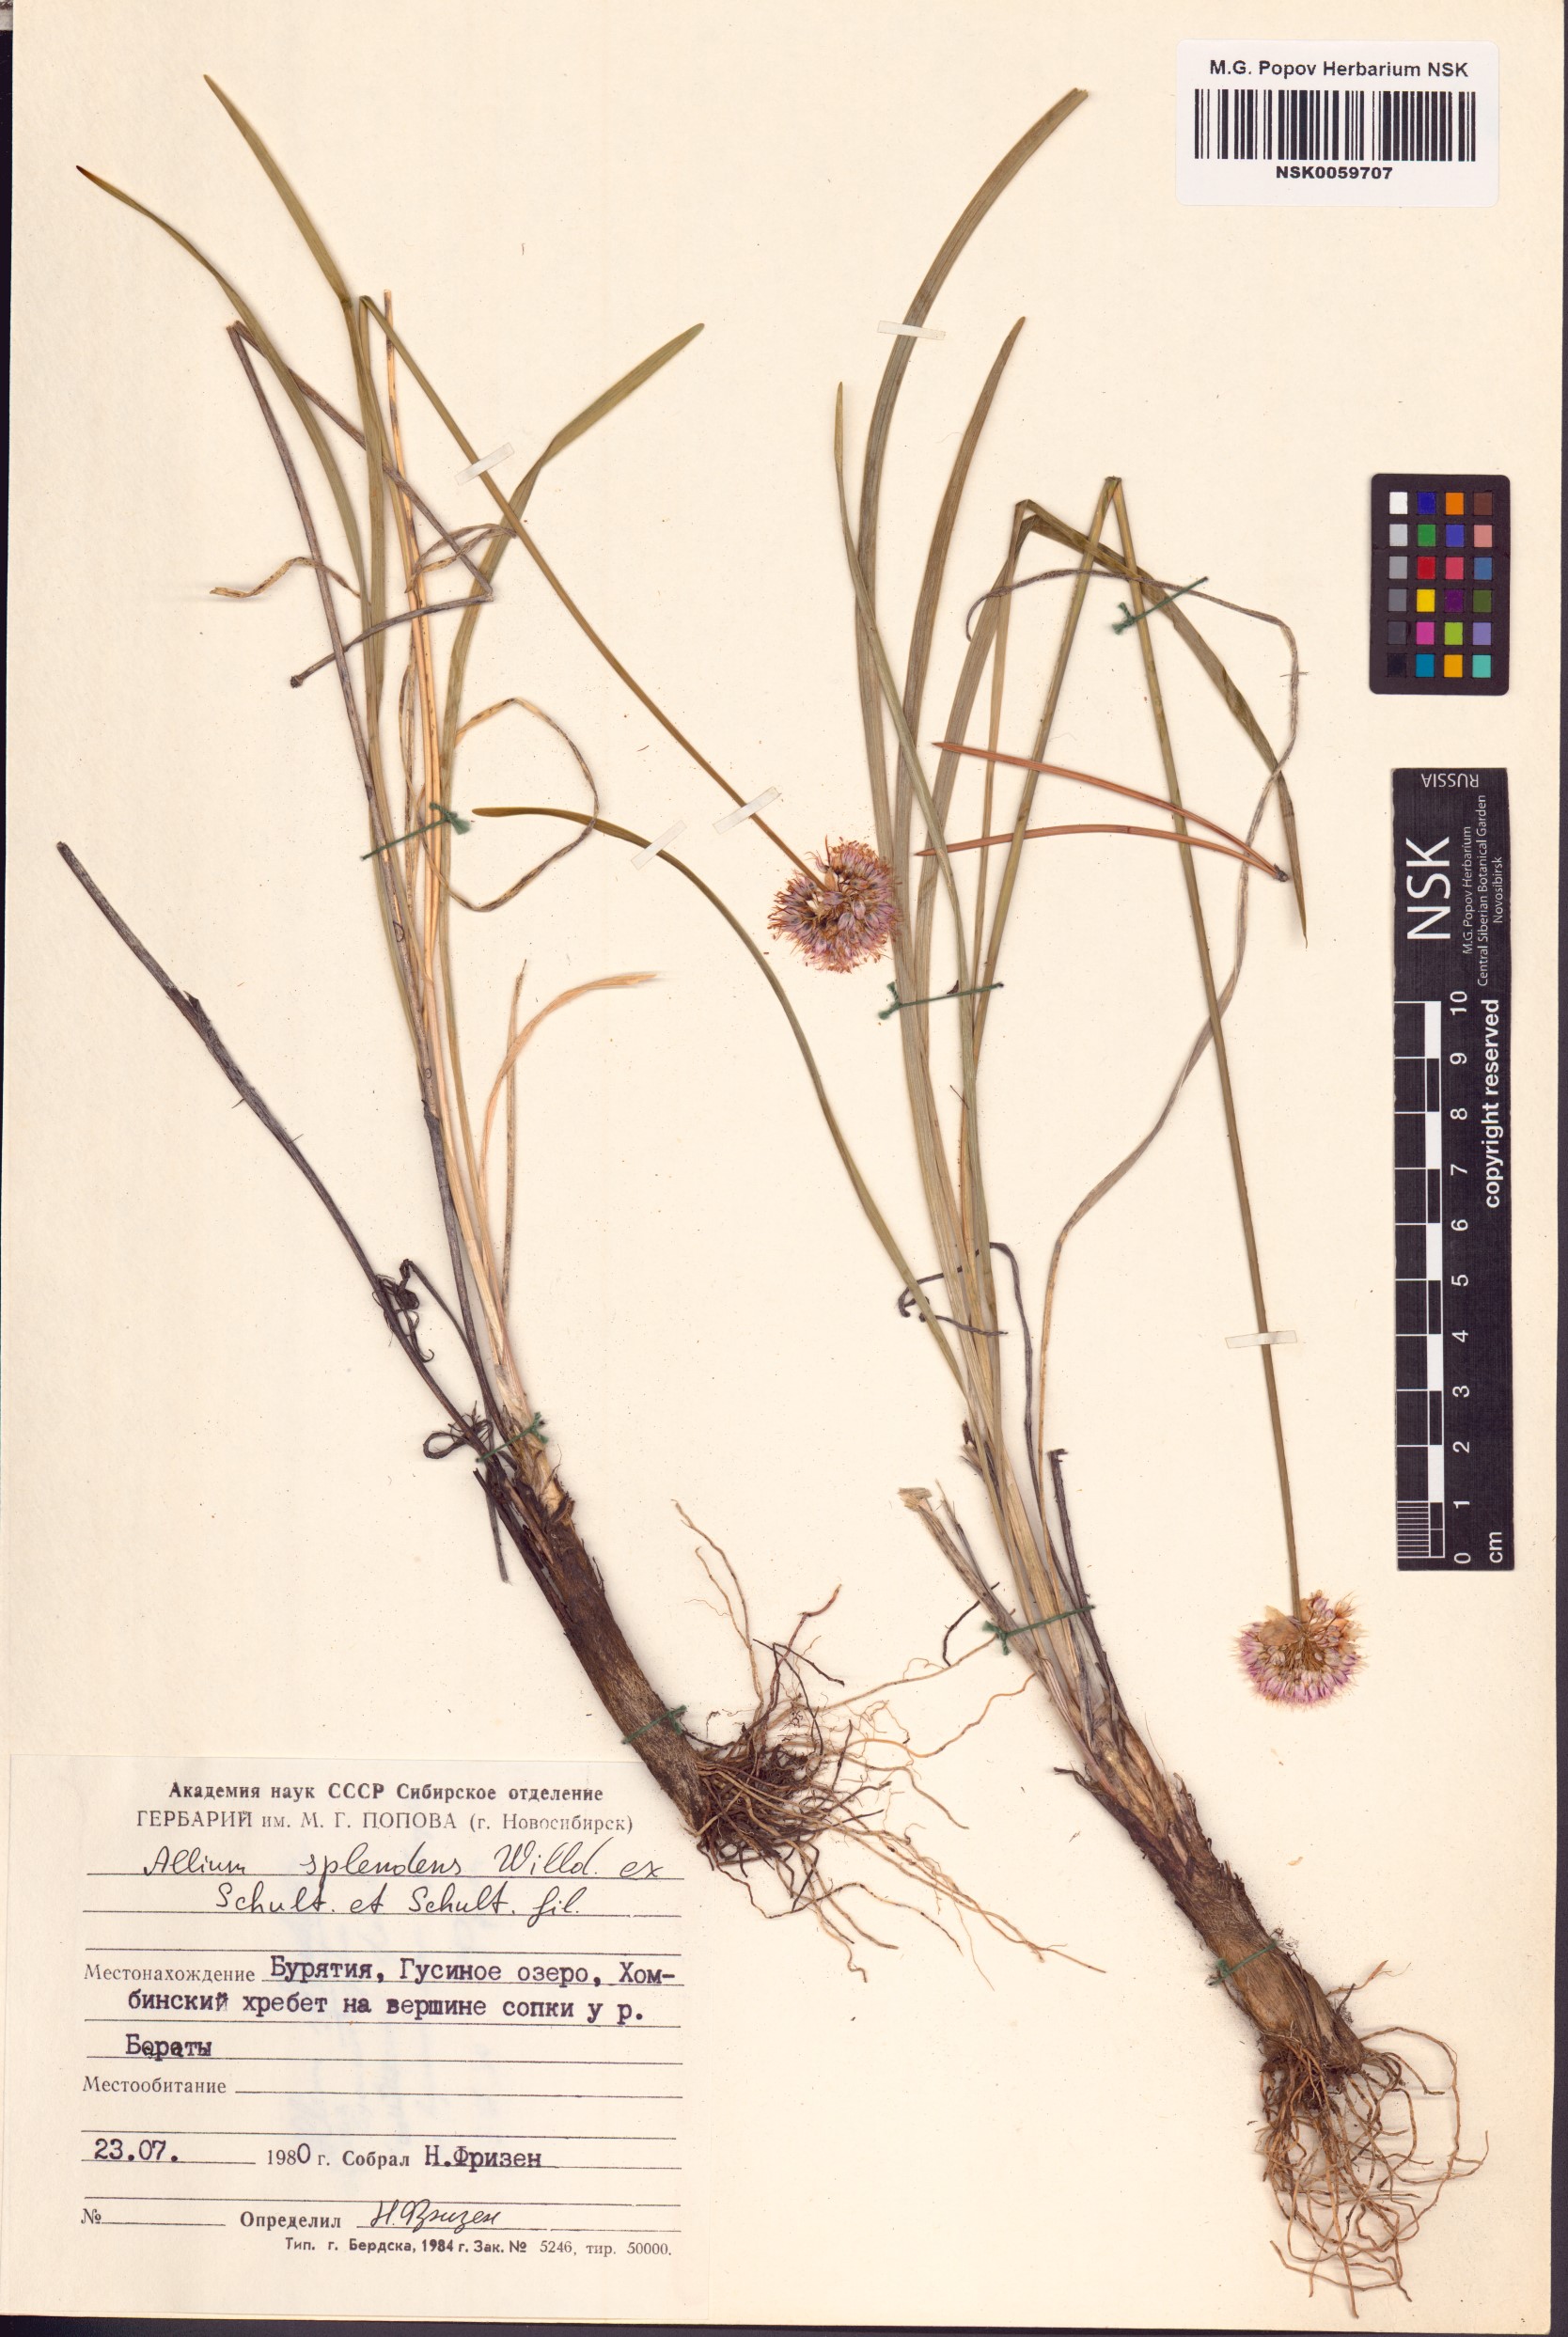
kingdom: Plantae
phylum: Tracheophyta
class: Liliopsida
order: Asparagales
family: Amaryllidaceae
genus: Allium
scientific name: Allium splendens
